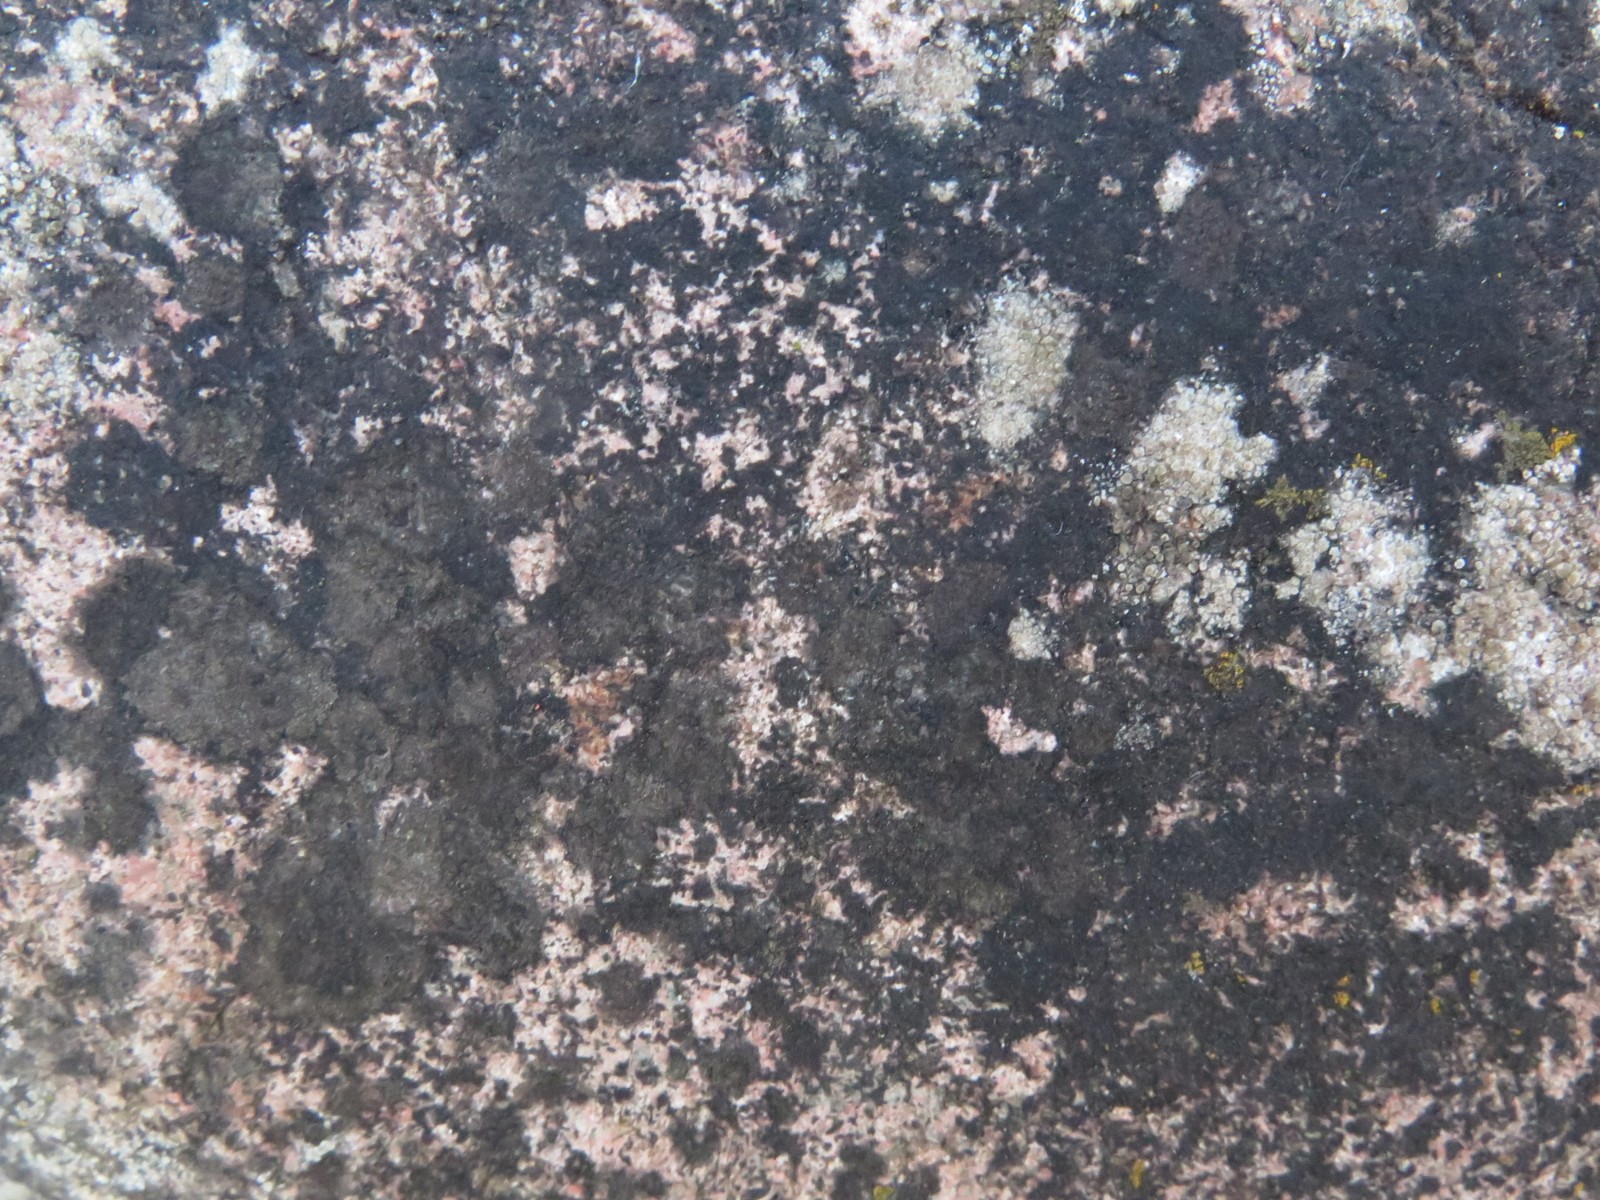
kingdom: Fungi
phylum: Ascomycota
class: Eurotiomycetes
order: Verrucariales
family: Verrucariaceae
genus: Verrucaria
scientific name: Verrucaria nigrescens
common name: sortbrun vortelav
